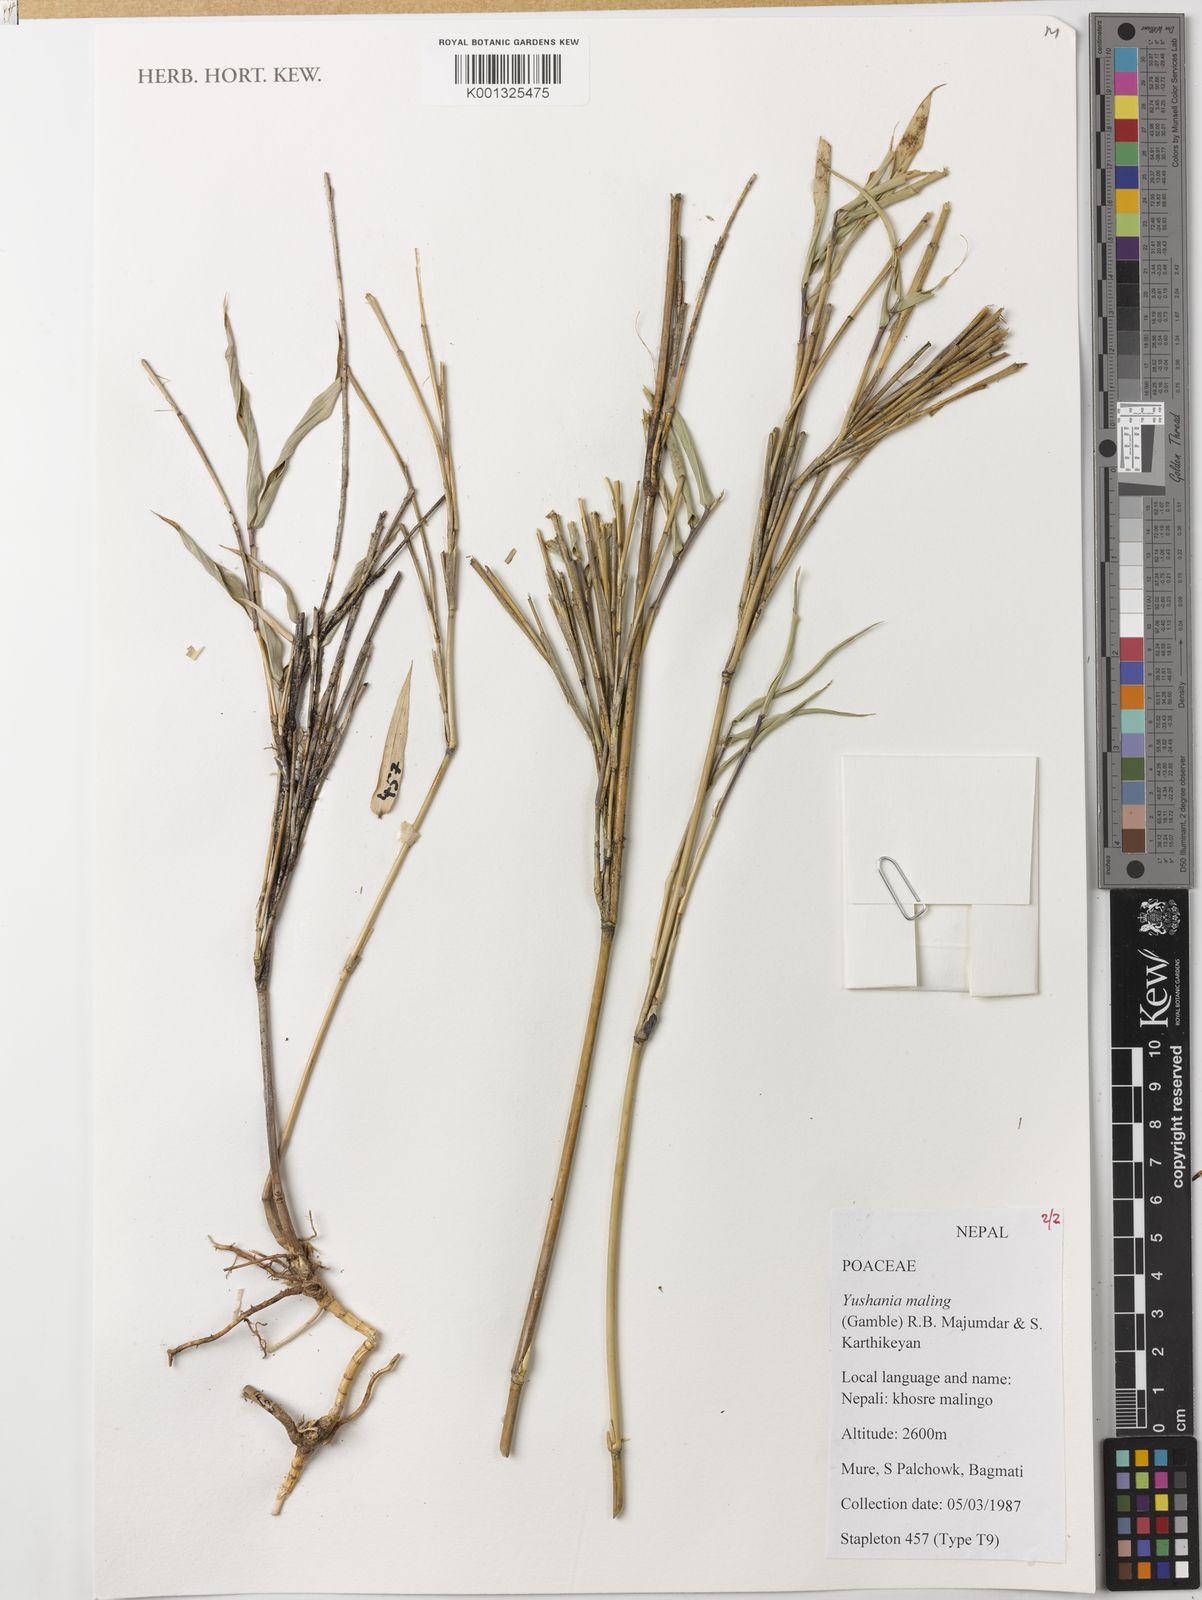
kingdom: Plantae
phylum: Tracheophyta
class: Liliopsida
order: Poales
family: Poaceae
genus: Yushania
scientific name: Yushania maling
